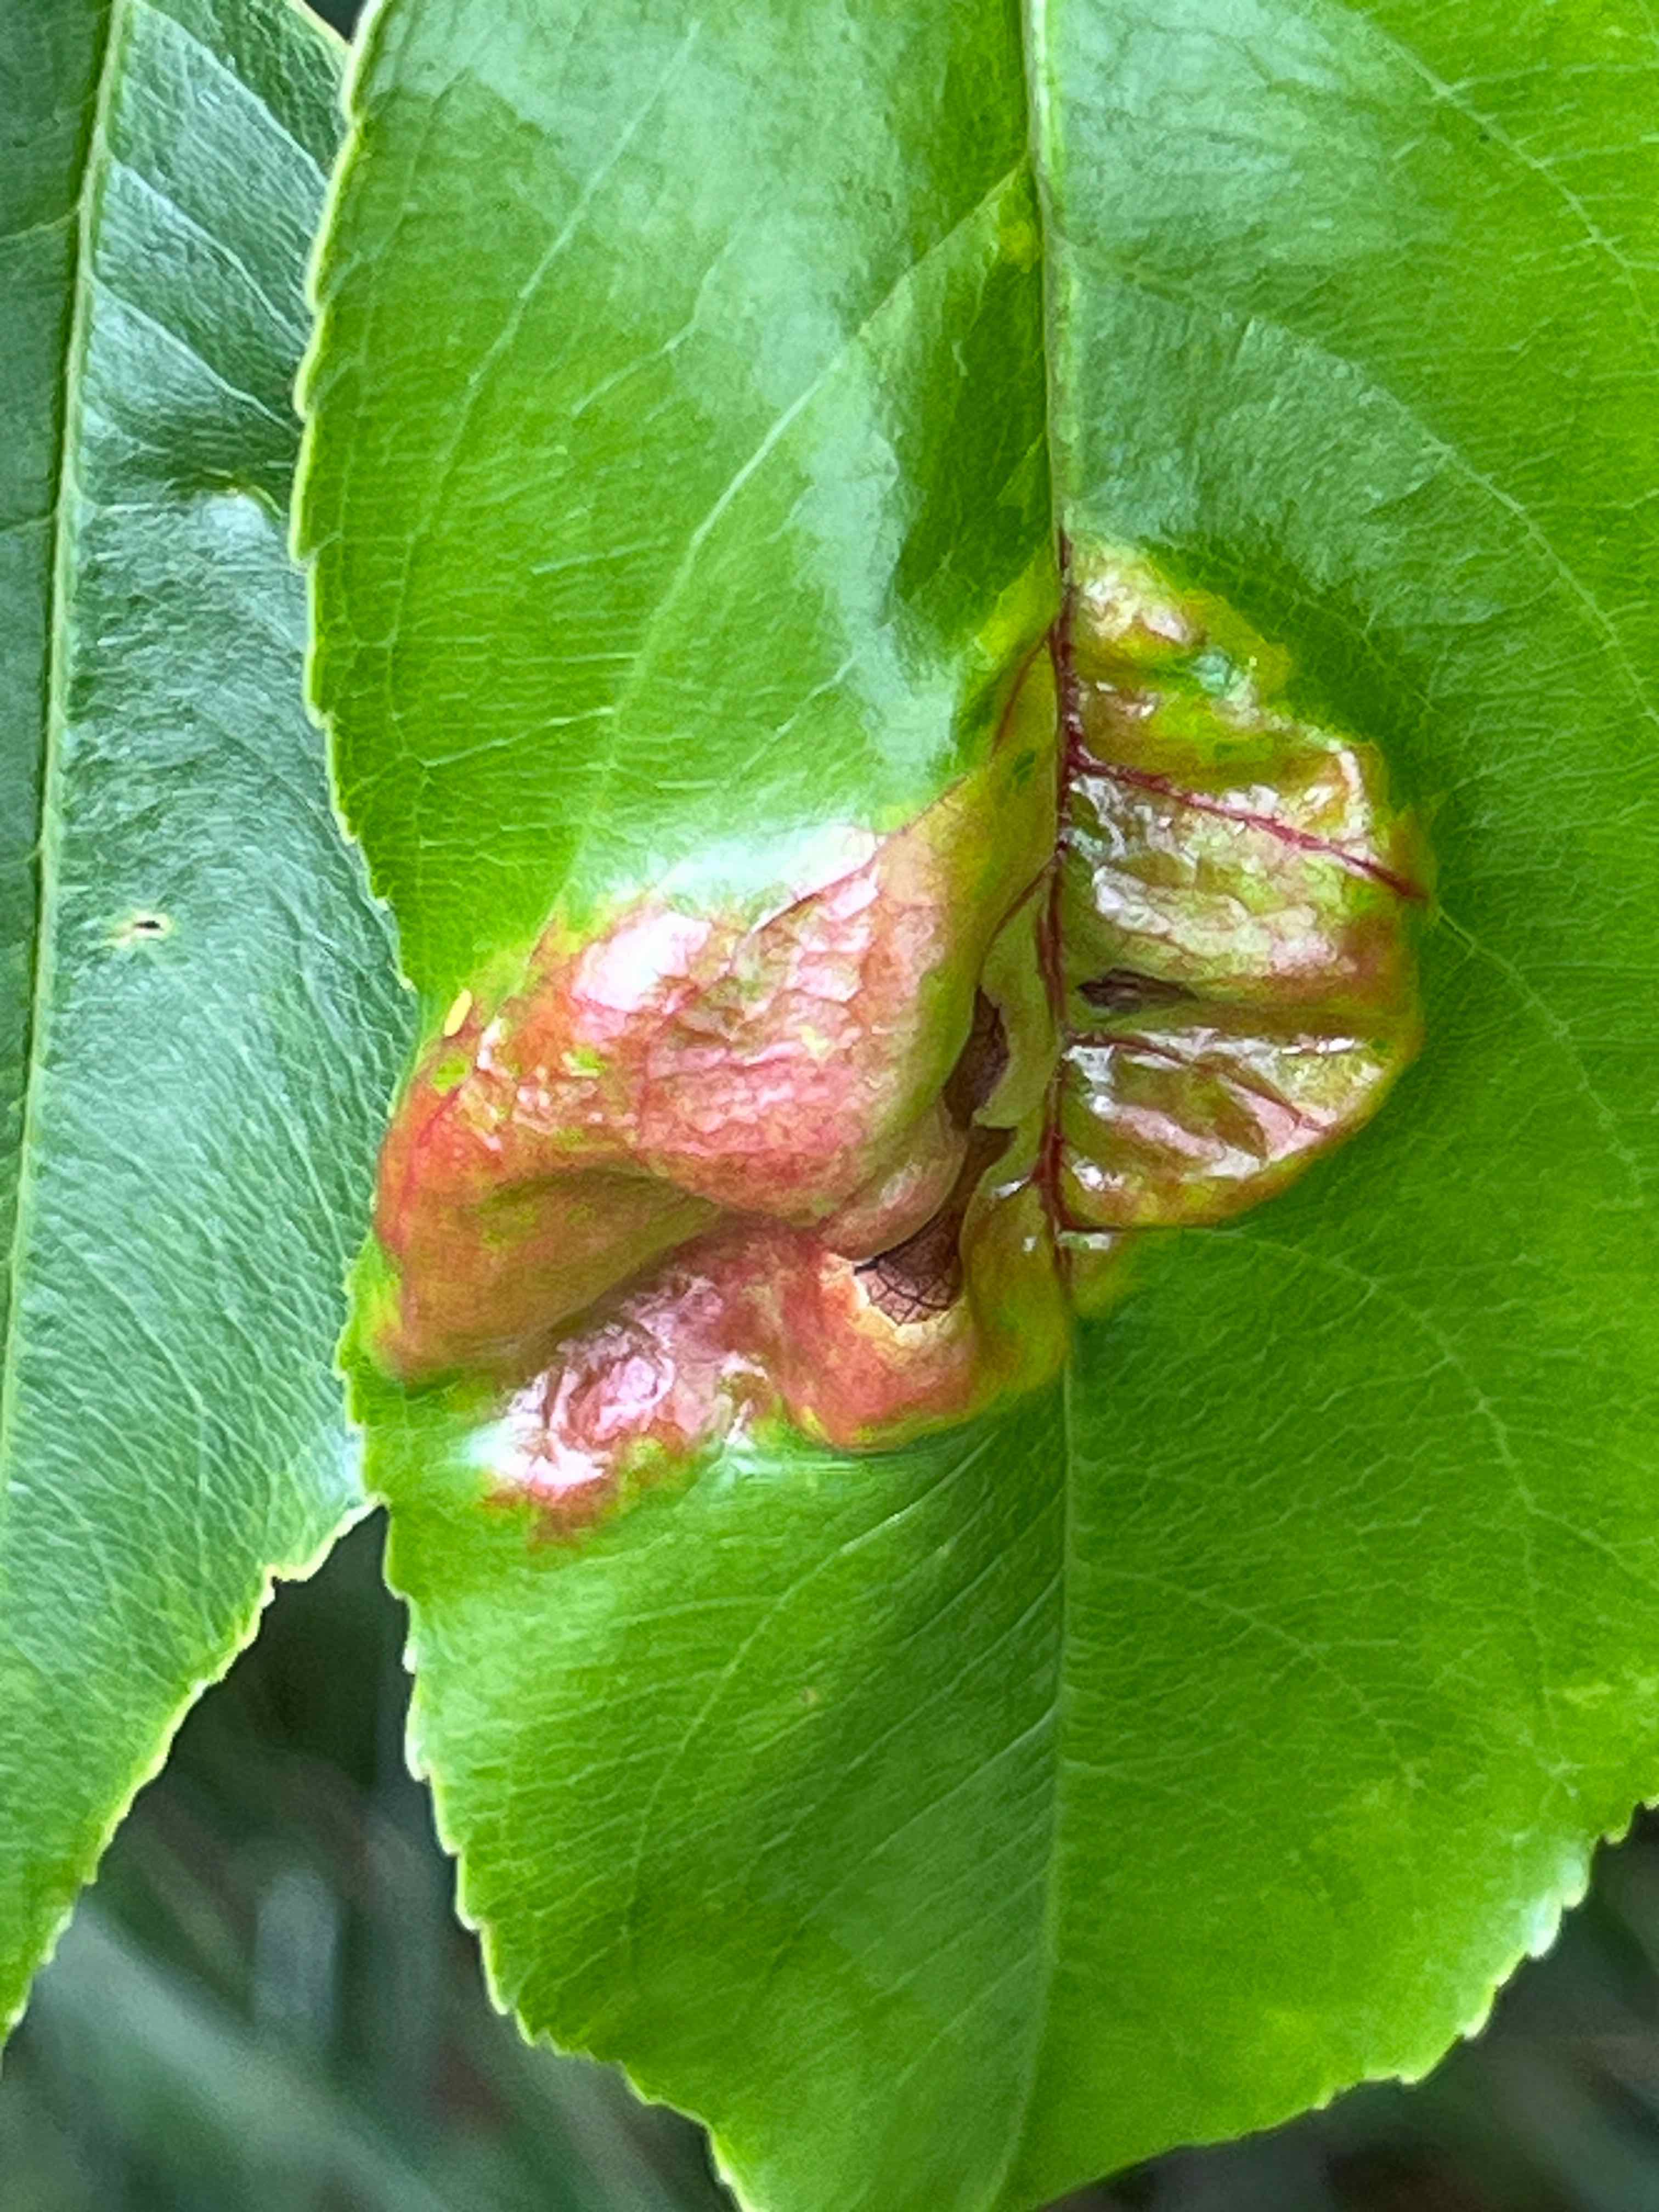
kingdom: Fungi
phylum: Ascomycota
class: Taphrinomycetes
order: Taphrinales
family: Taphrinaceae
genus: Taphrina
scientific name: Taphrina farlowii
